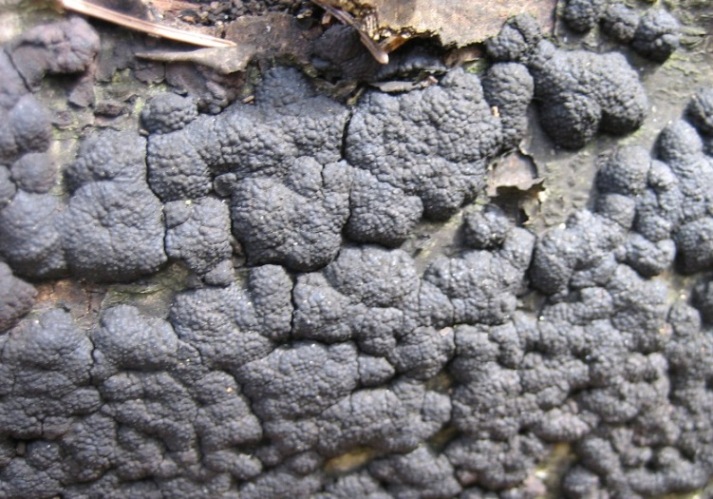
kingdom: Fungi
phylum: Ascomycota
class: Sordariomycetes
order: Xylariales
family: Hypoxylaceae
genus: Jackrogersella
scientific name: Jackrogersella cohaerens
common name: sammenflydende kulbær
